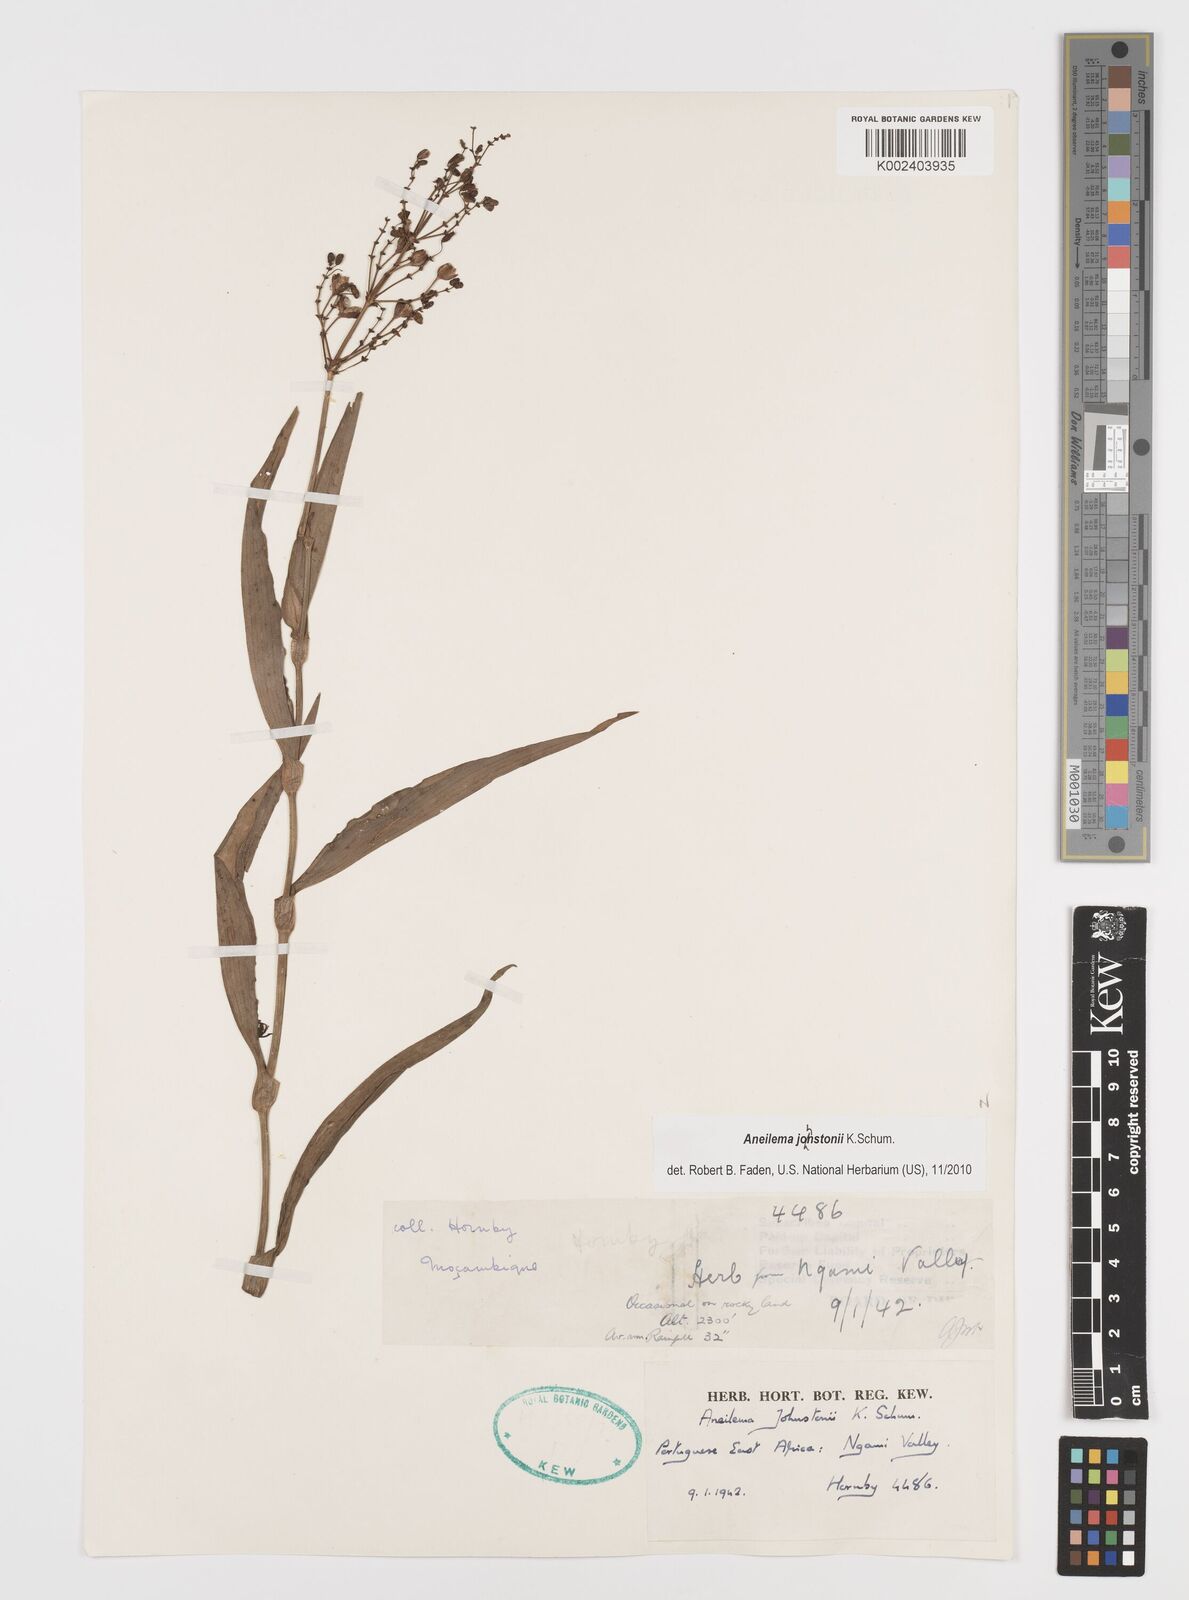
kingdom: Plantae
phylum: Tracheophyta
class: Liliopsida
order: Commelinales
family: Commelinaceae
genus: Aneilema
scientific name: Aneilema johnstonii
